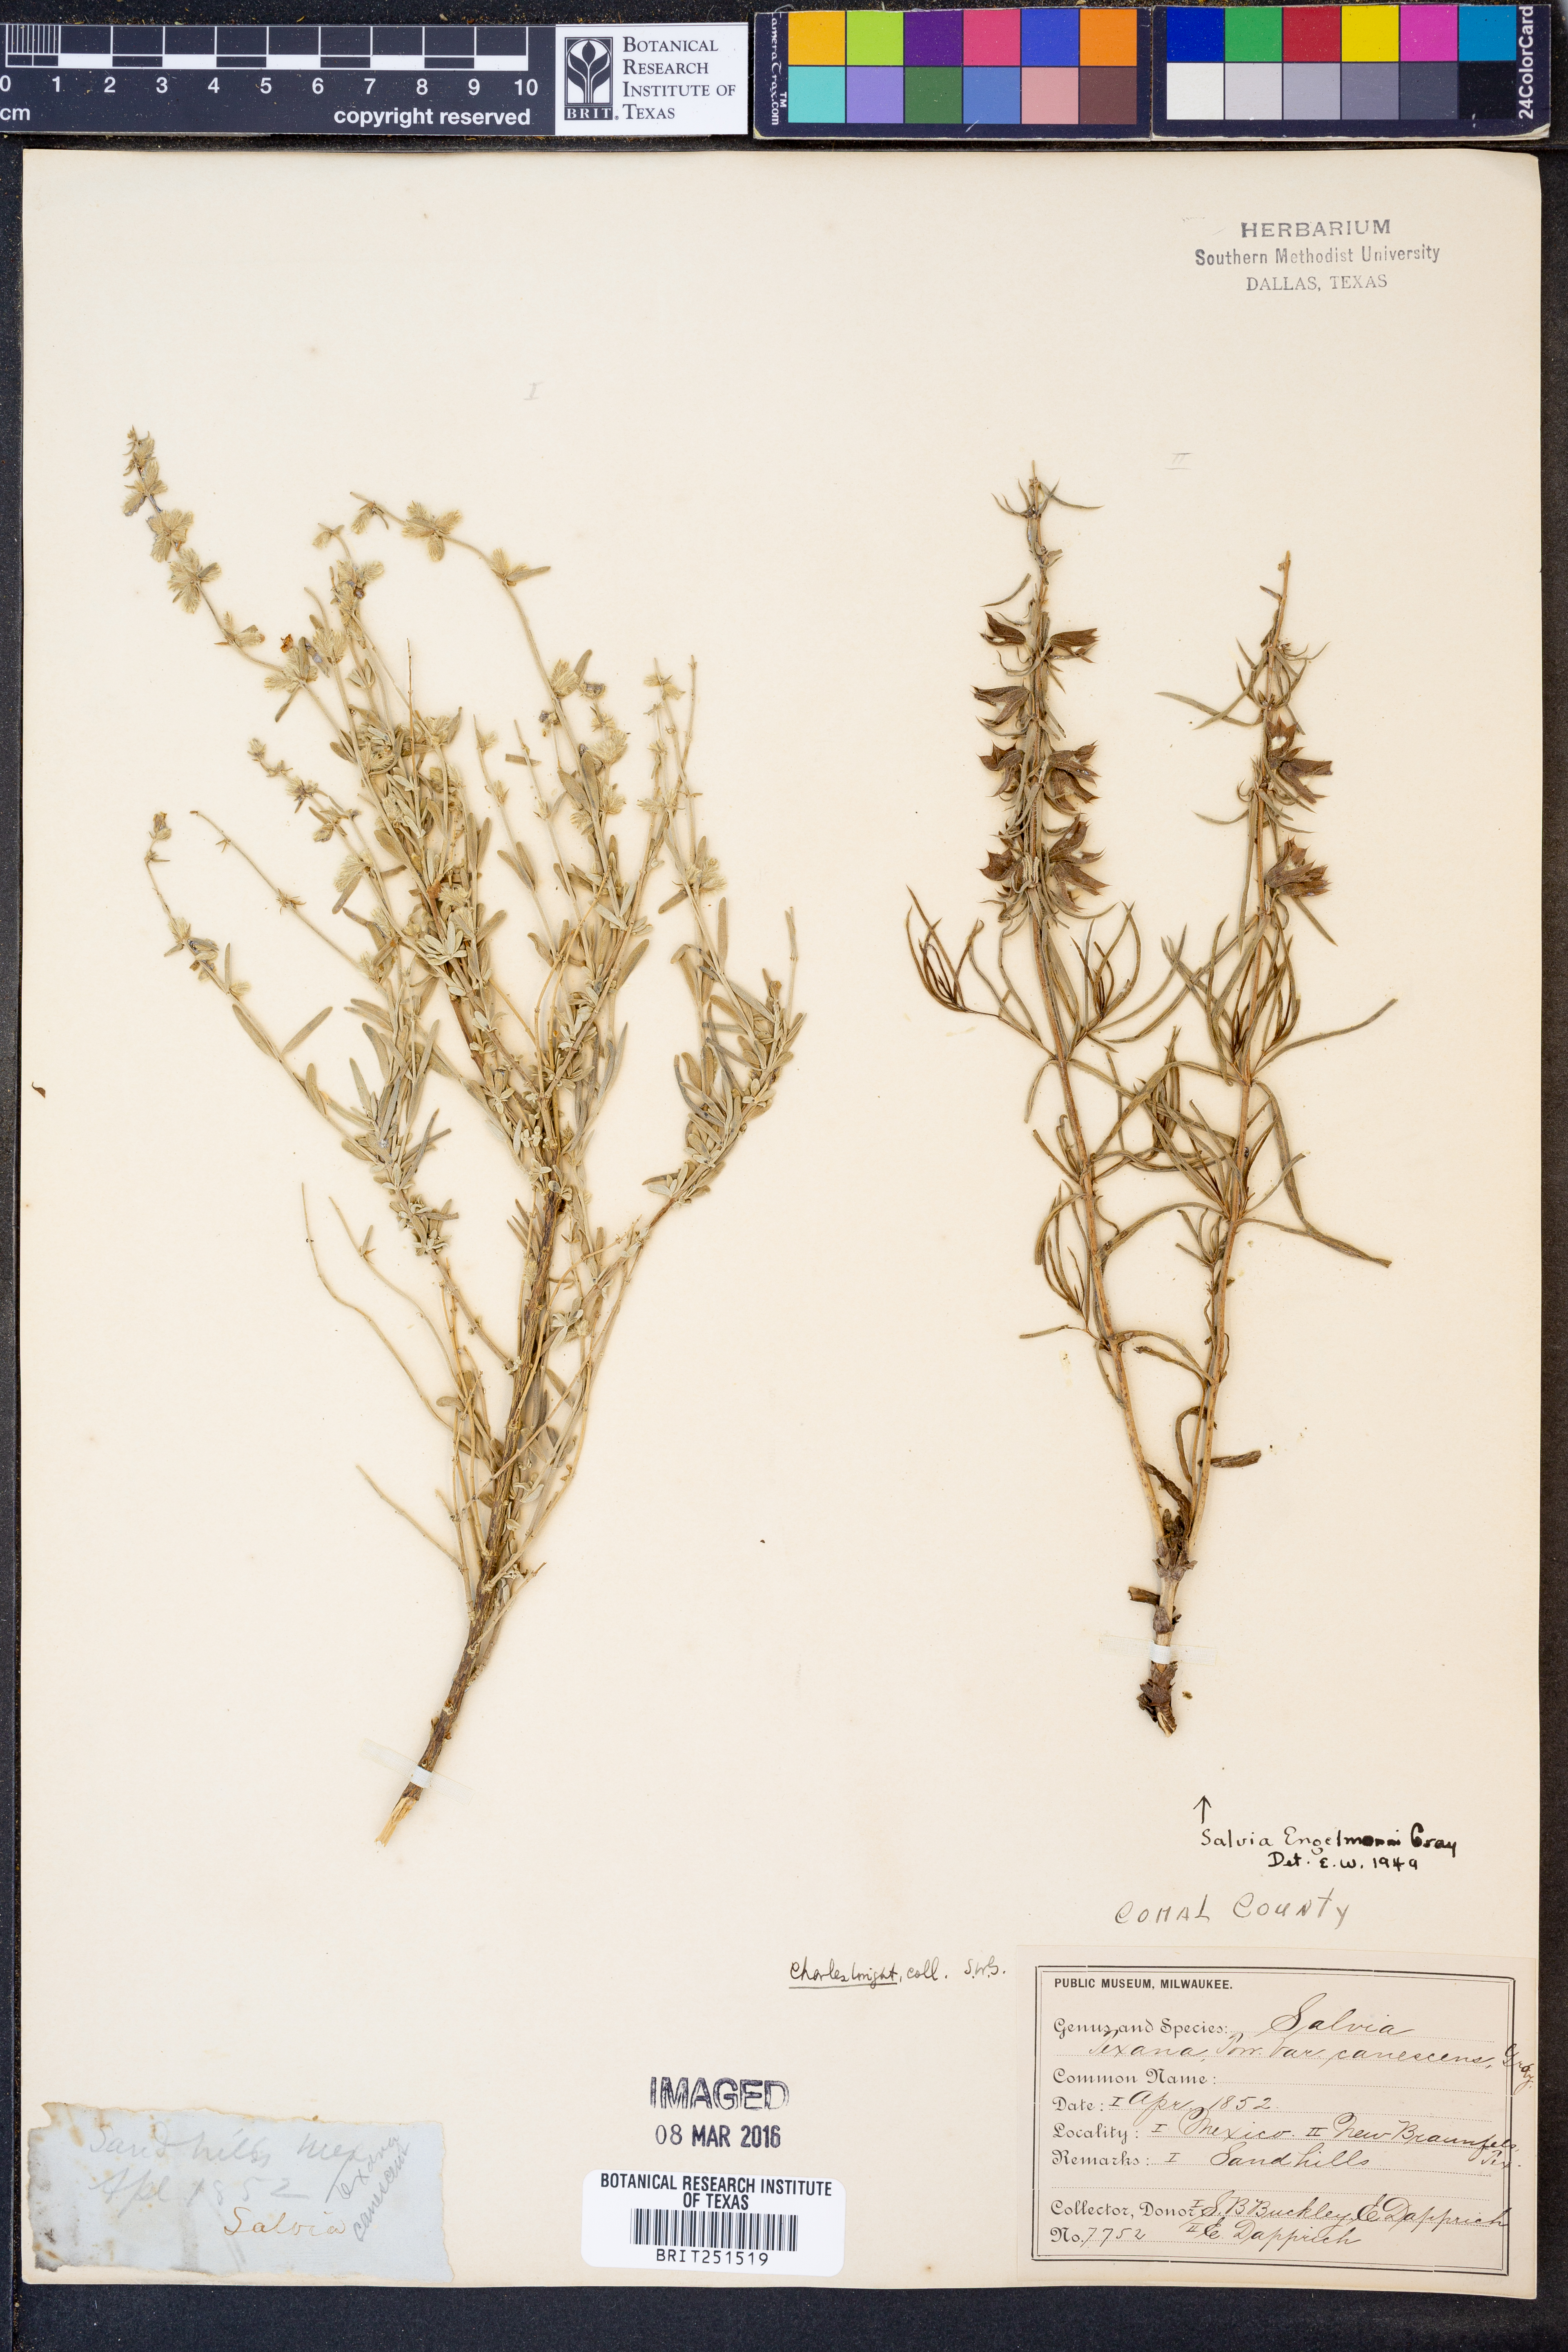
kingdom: Plantae
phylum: Tracheophyta
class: Magnoliopsida
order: Lamiales
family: Lamiaceae
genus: Salvia
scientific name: Salvia engelmannii
